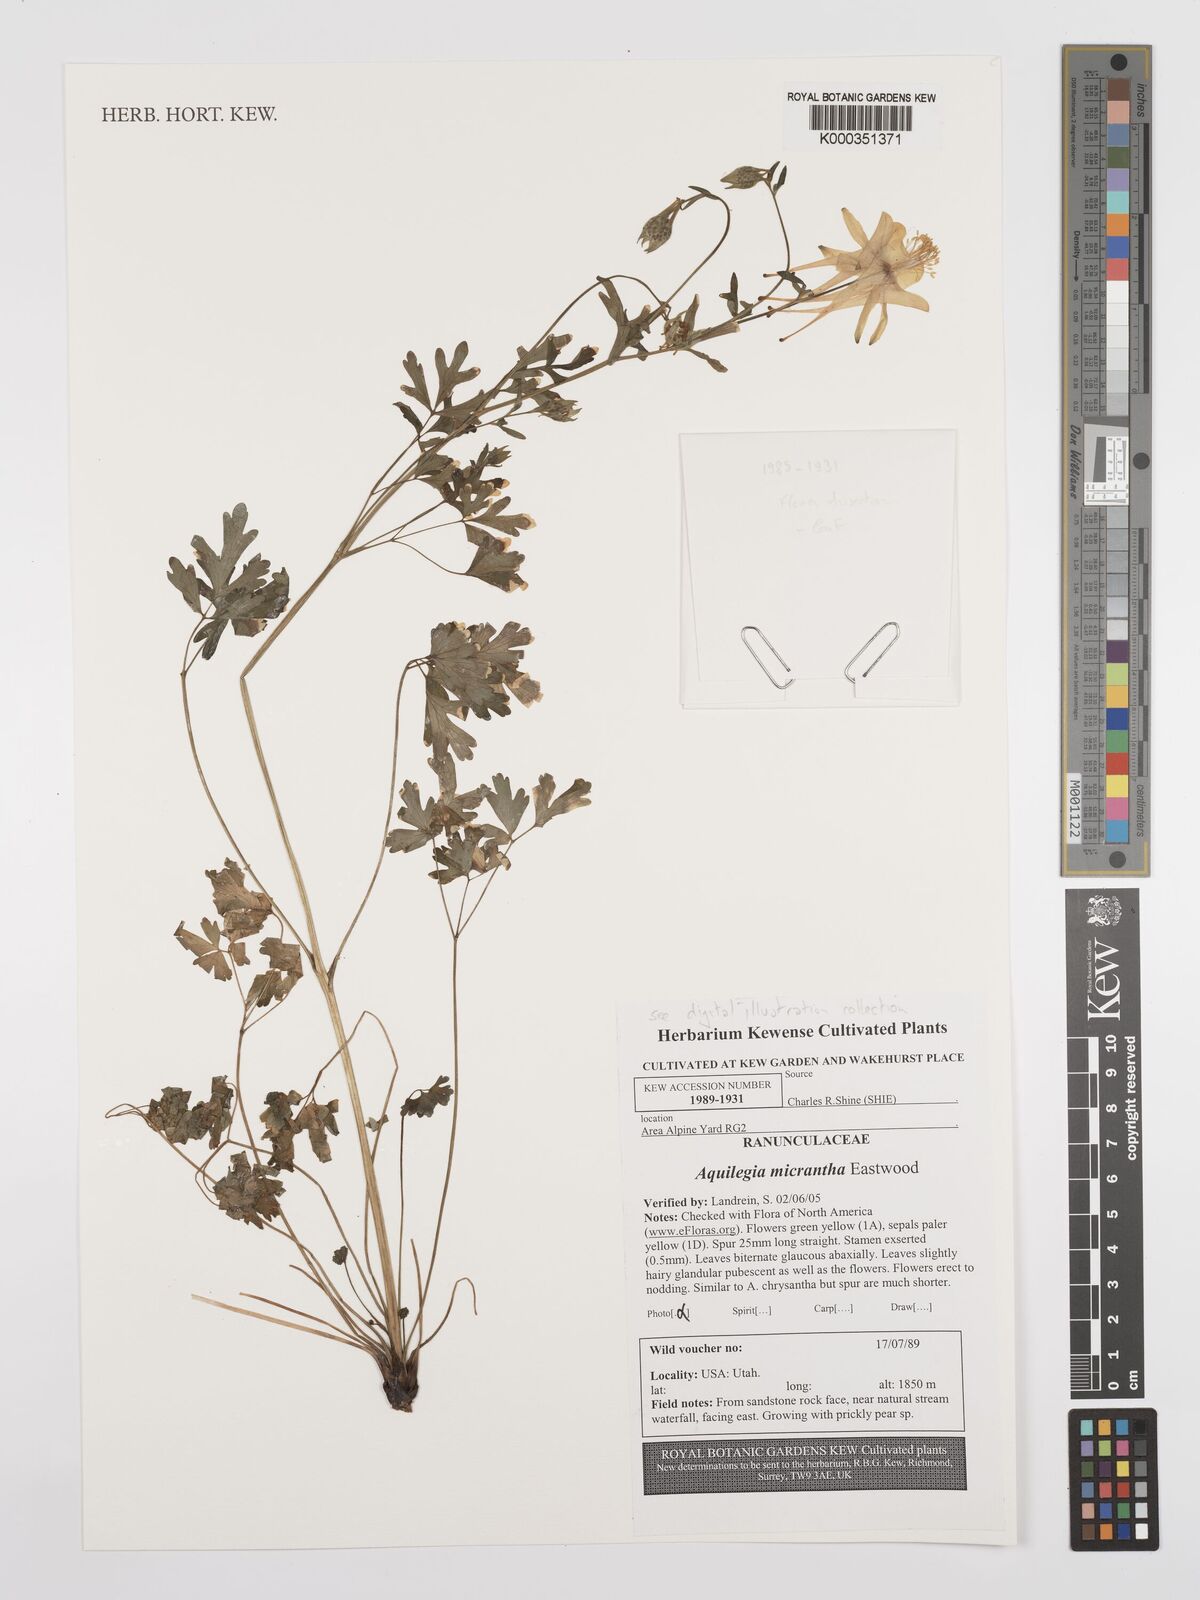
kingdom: Plantae
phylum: Tracheophyta
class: Magnoliopsida
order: Ranunculales
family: Ranunculaceae
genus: Aquilegia
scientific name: Aquilegia micrantha
